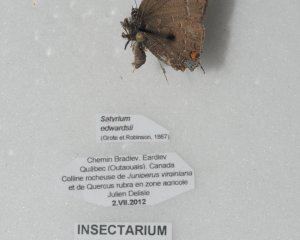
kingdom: Animalia
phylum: Arthropoda
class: Insecta
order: Lepidoptera
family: Lycaenidae
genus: Satyrium
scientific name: Satyrium calanus
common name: Banded Hairstreak
